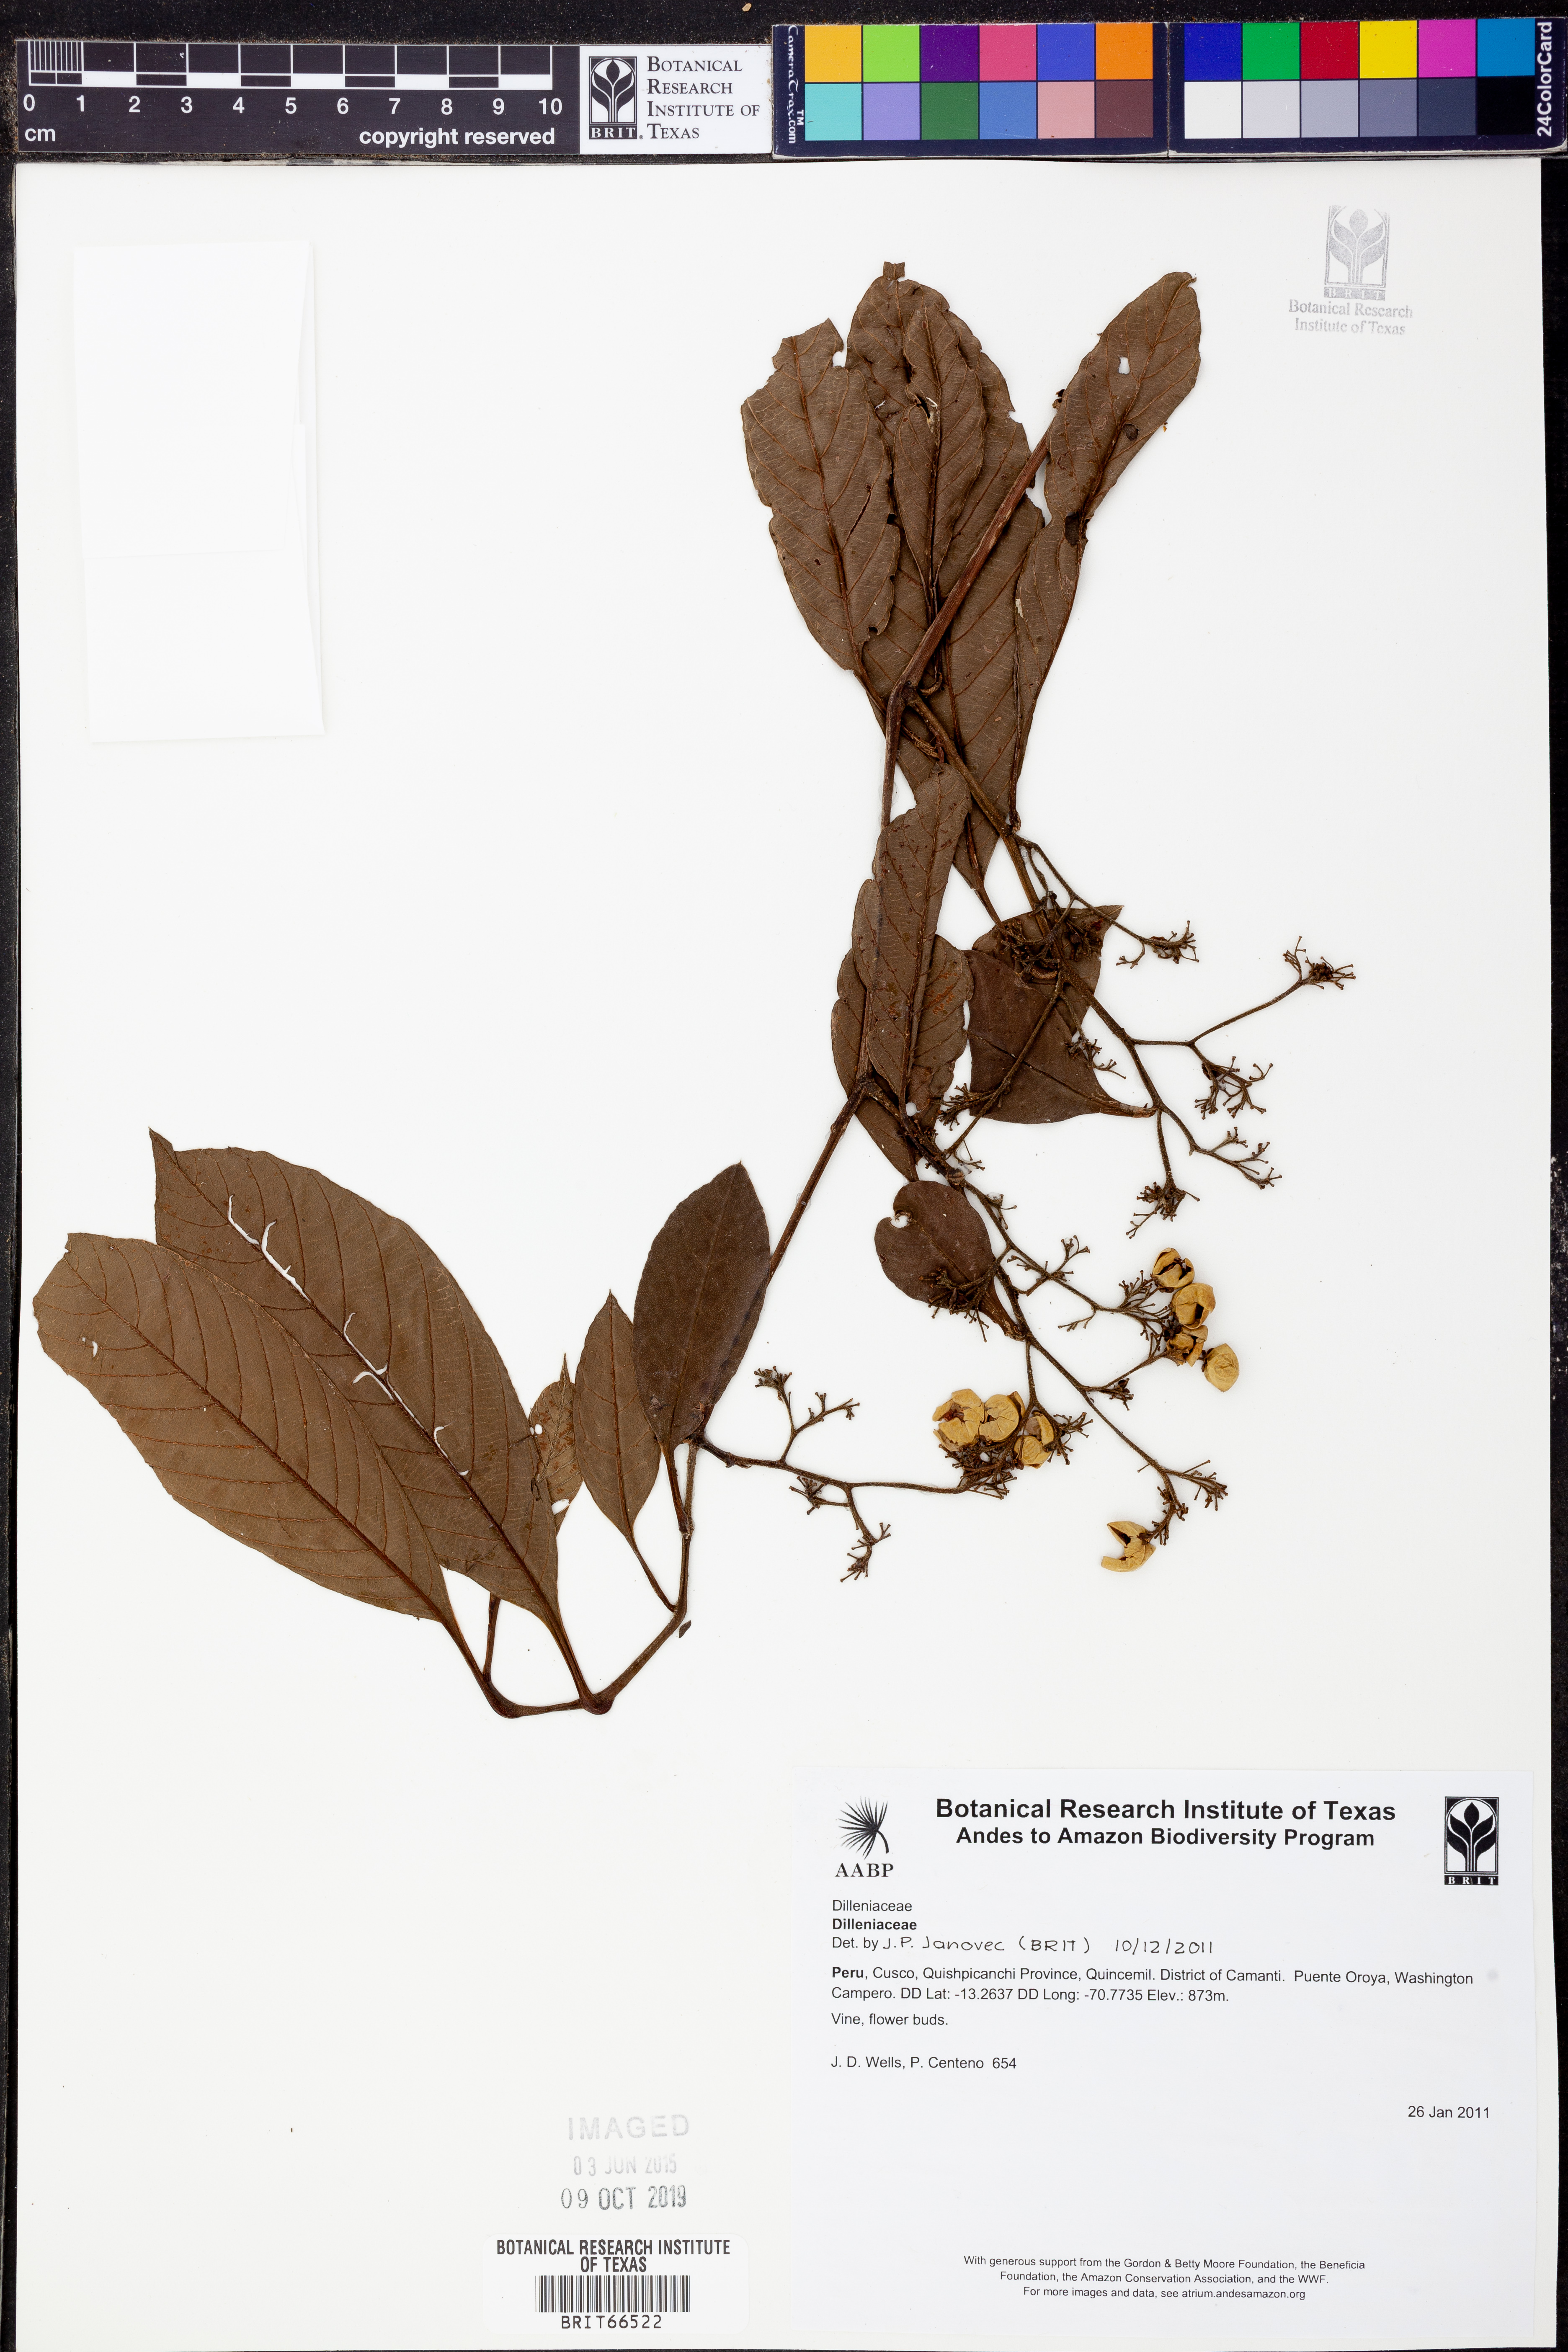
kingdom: Plantae
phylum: Tracheophyta
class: Magnoliopsida
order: Dilleniales
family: Dilleniaceae
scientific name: Dilleniaceae
